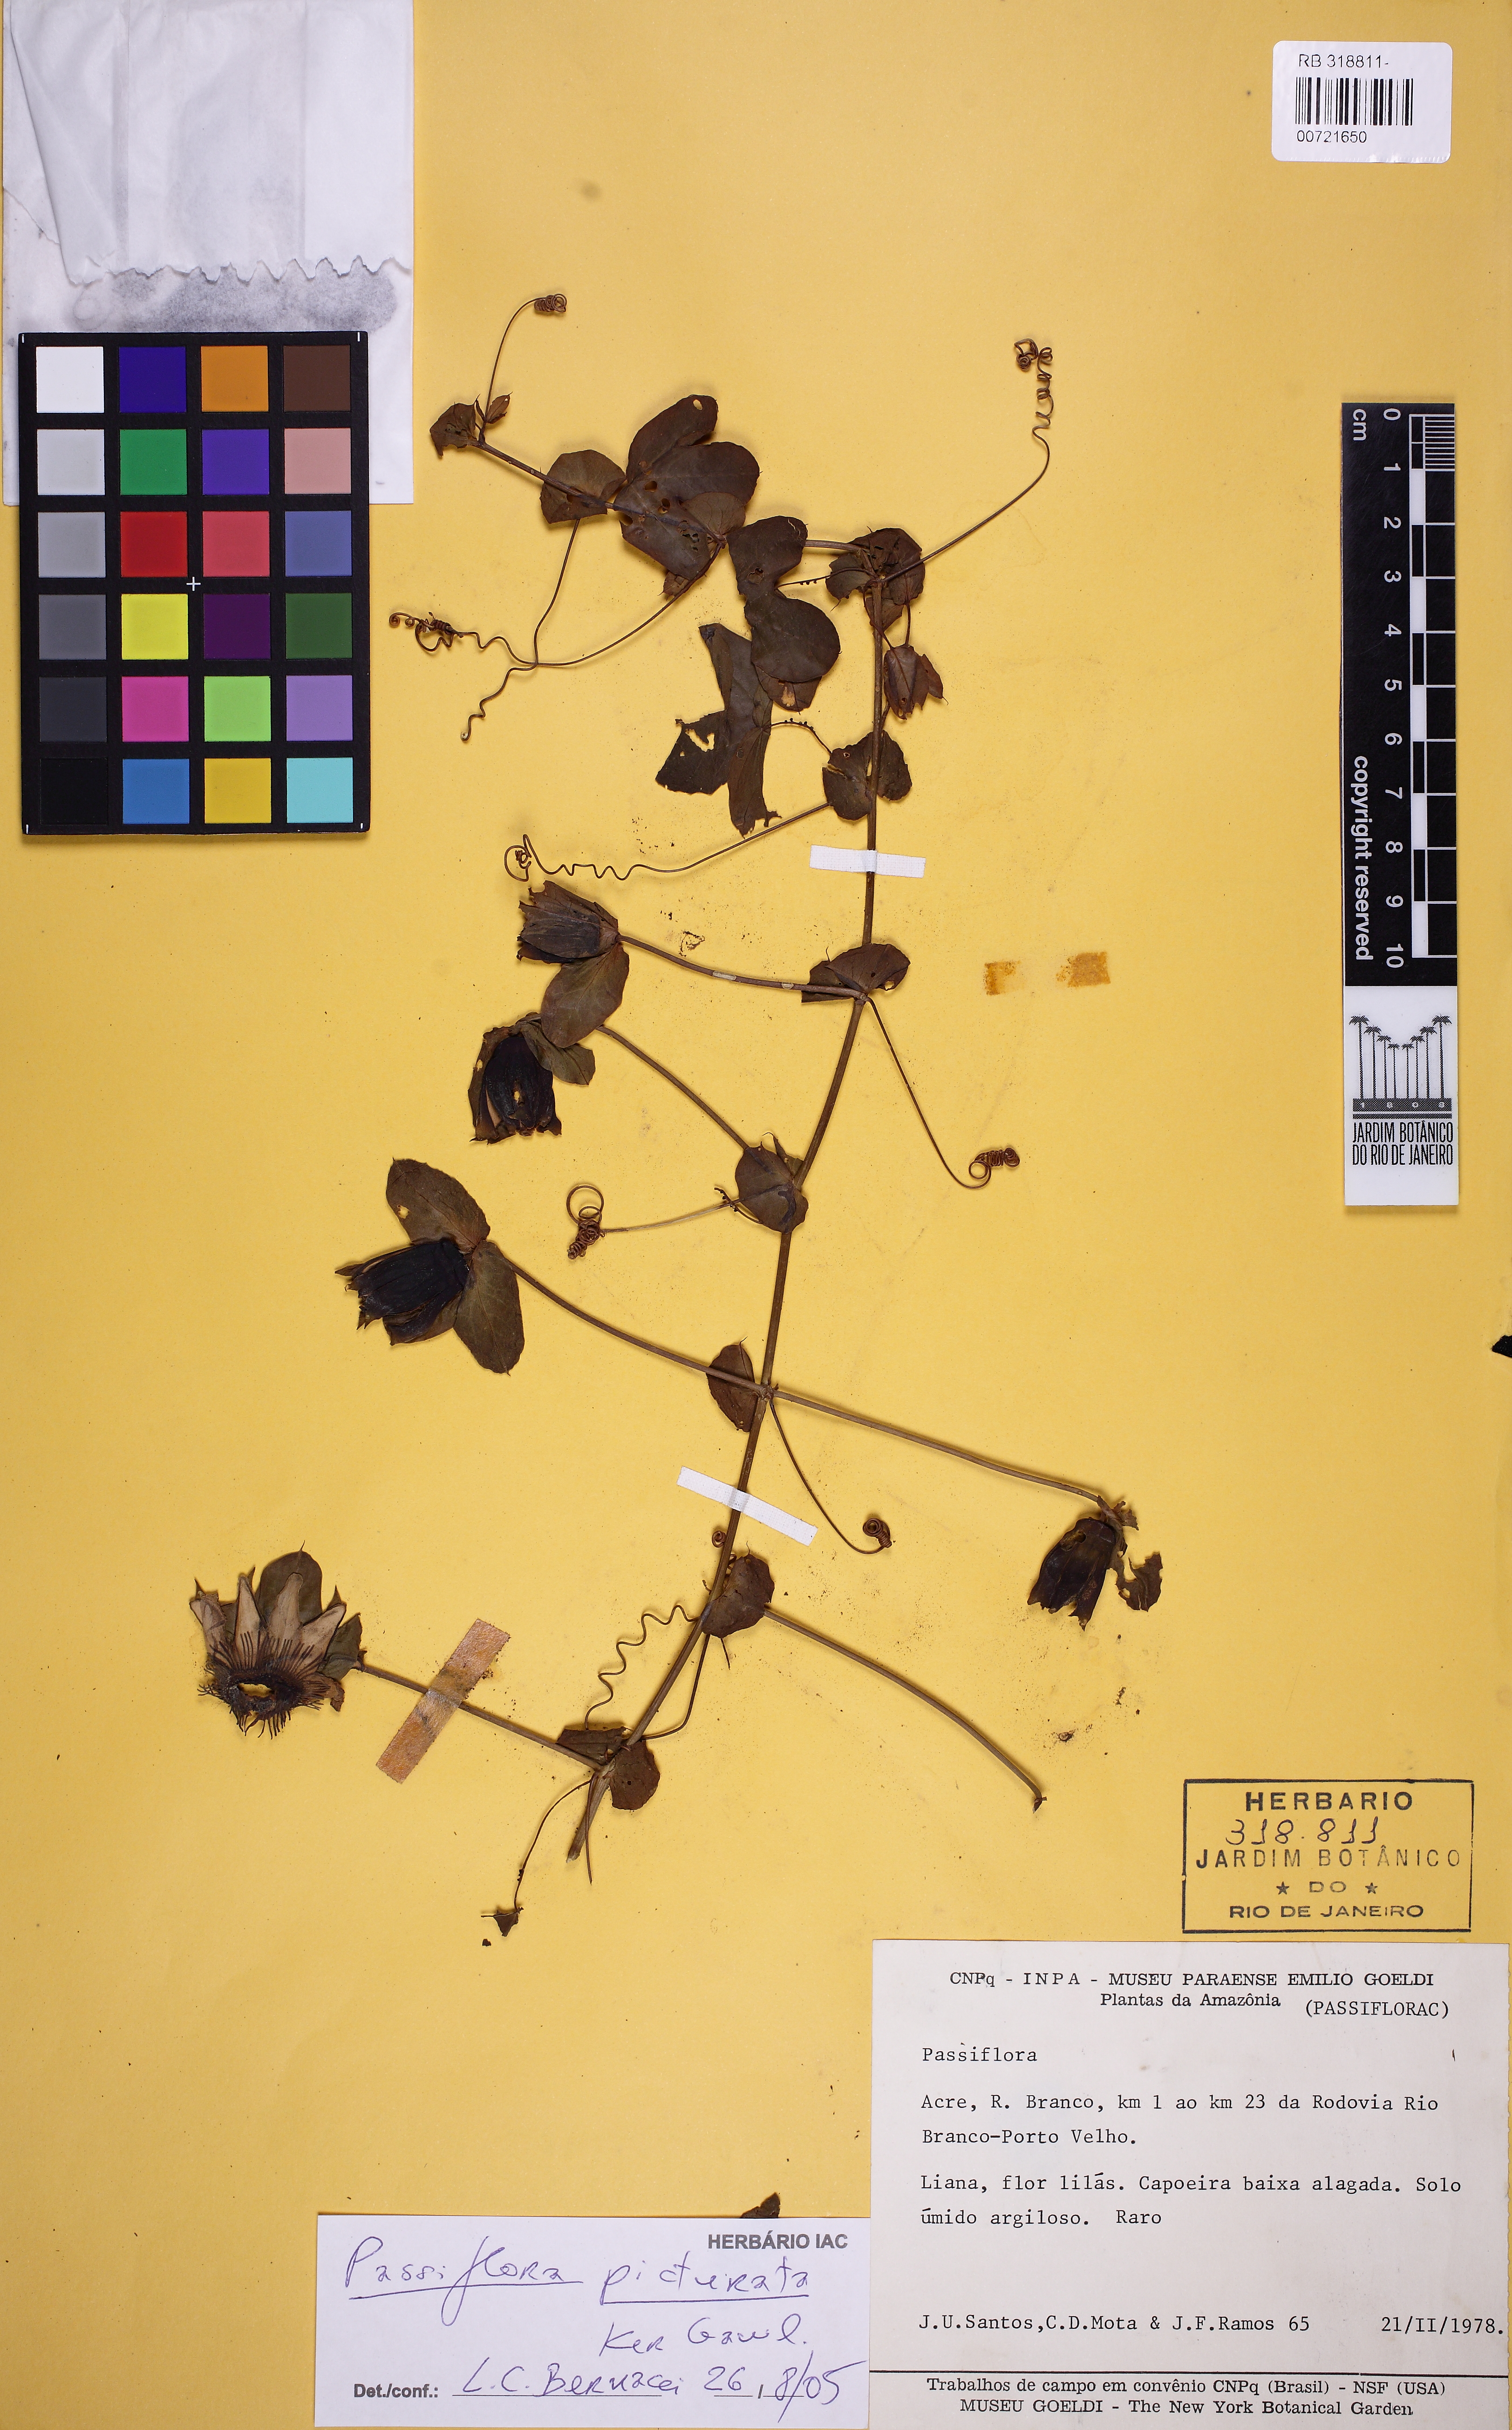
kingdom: Plantae
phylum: Tracheophyta
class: Magnoliopsida
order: Malpighiales
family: Passifloraceae
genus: Passiflora
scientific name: Passiflora picturata
